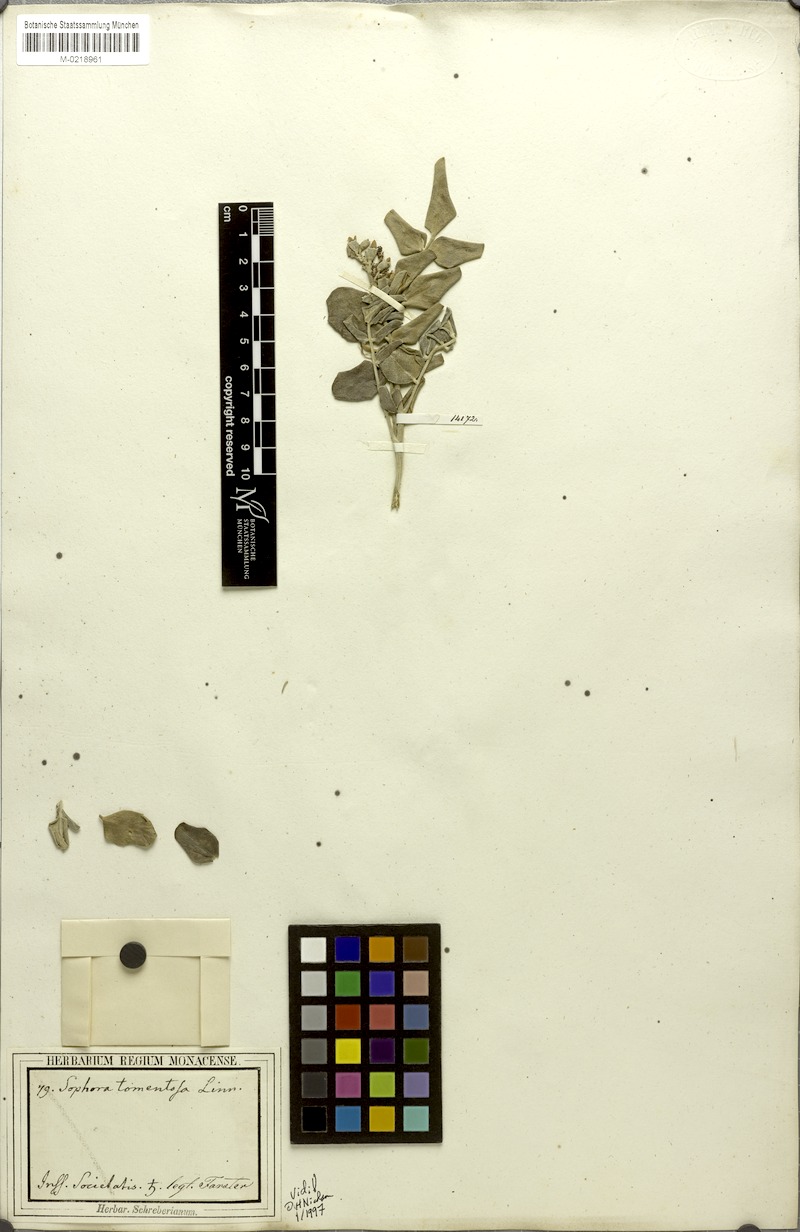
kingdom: Plantae
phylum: Tracheophyta
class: Magnoliopsida
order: Fabales
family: Fabaceae
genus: Sophora
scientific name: Sophora tomentosa
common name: Yellow necklacepod
